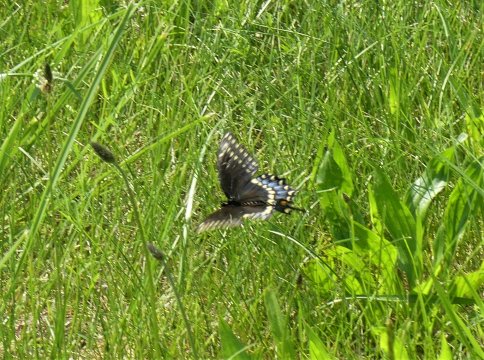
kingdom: Animalia
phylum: Arthropoda
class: Insecta
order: Lepidoptera
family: Papilionidae
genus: Papilio
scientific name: Papilio polyxenes
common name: Black Swallowtail
